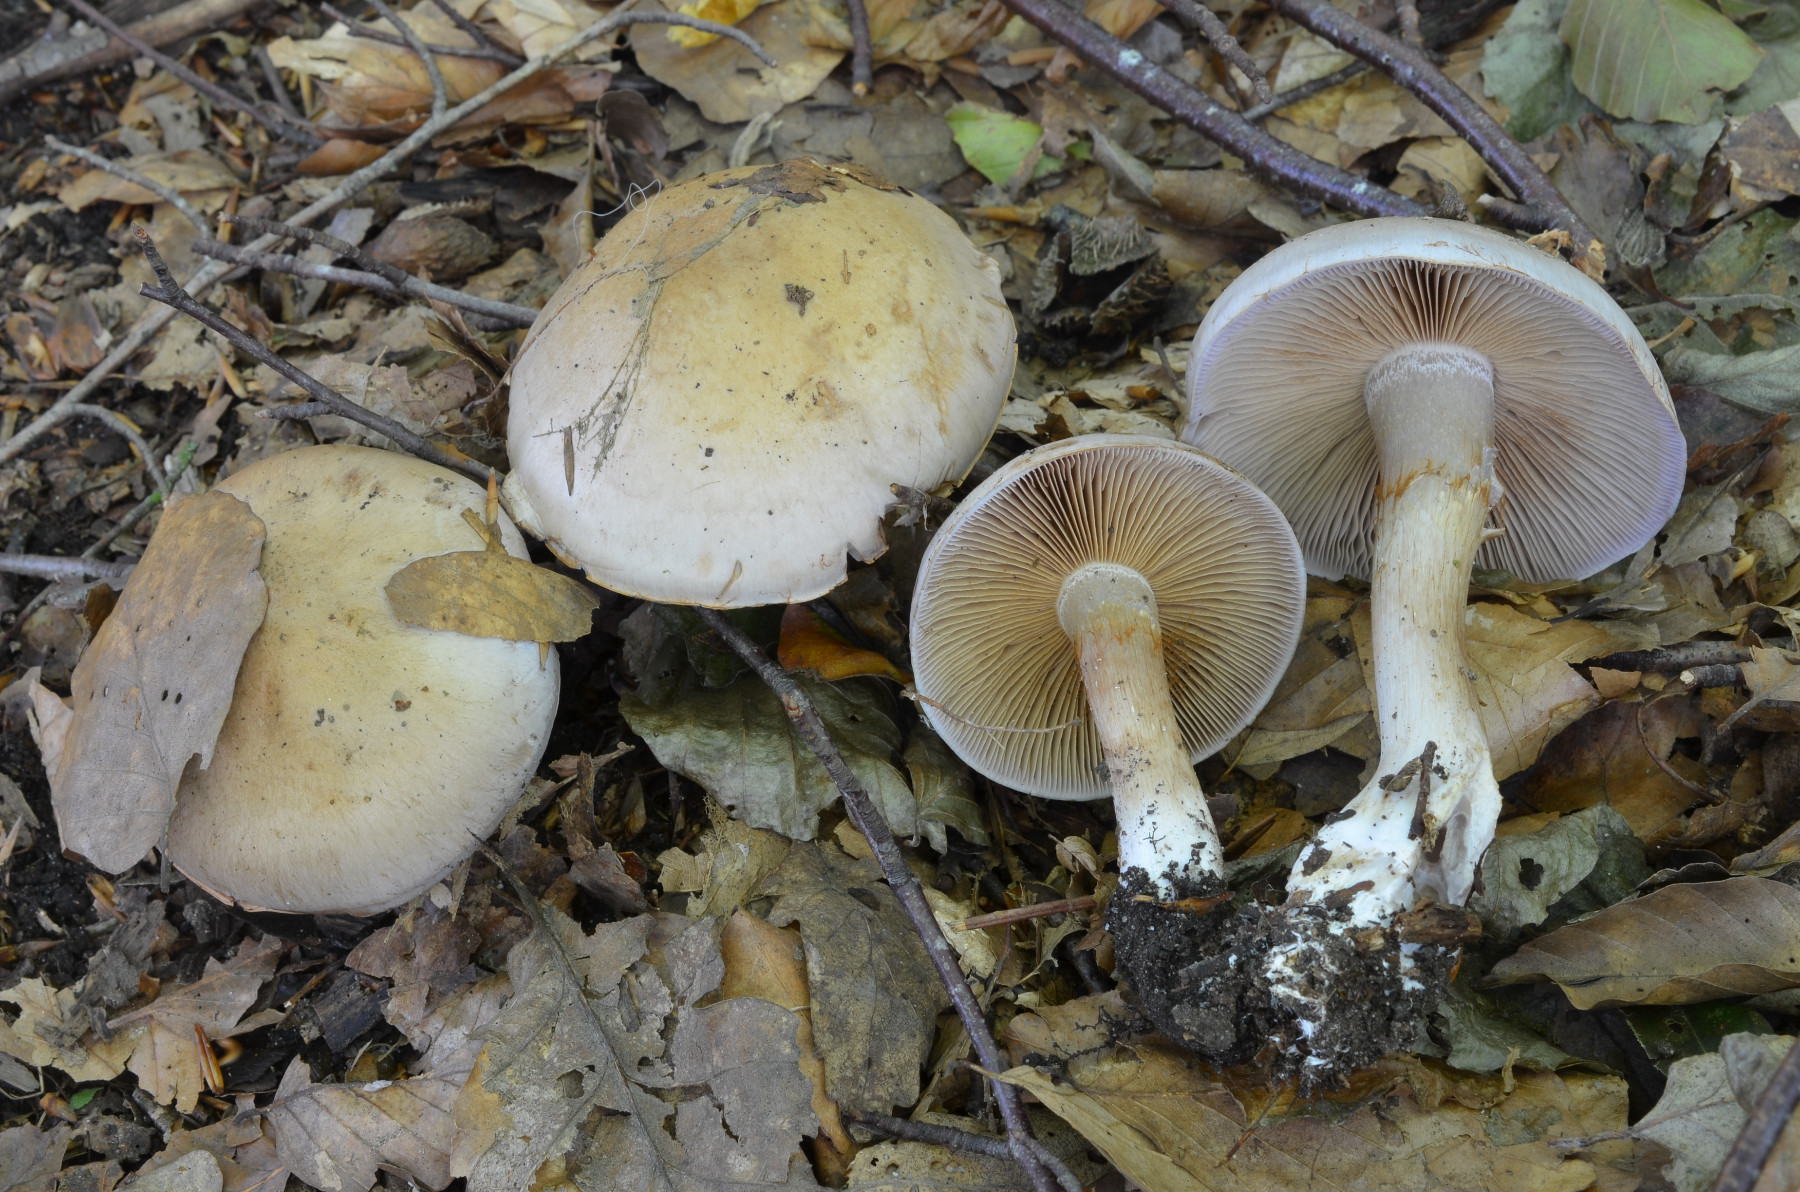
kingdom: Fungi
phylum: Basidiomycota
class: Agaricomycetes
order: Agaricales
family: Cortinariaceae
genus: Cortinarius
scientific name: Cortinarius largus
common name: violetrandet slørhat
